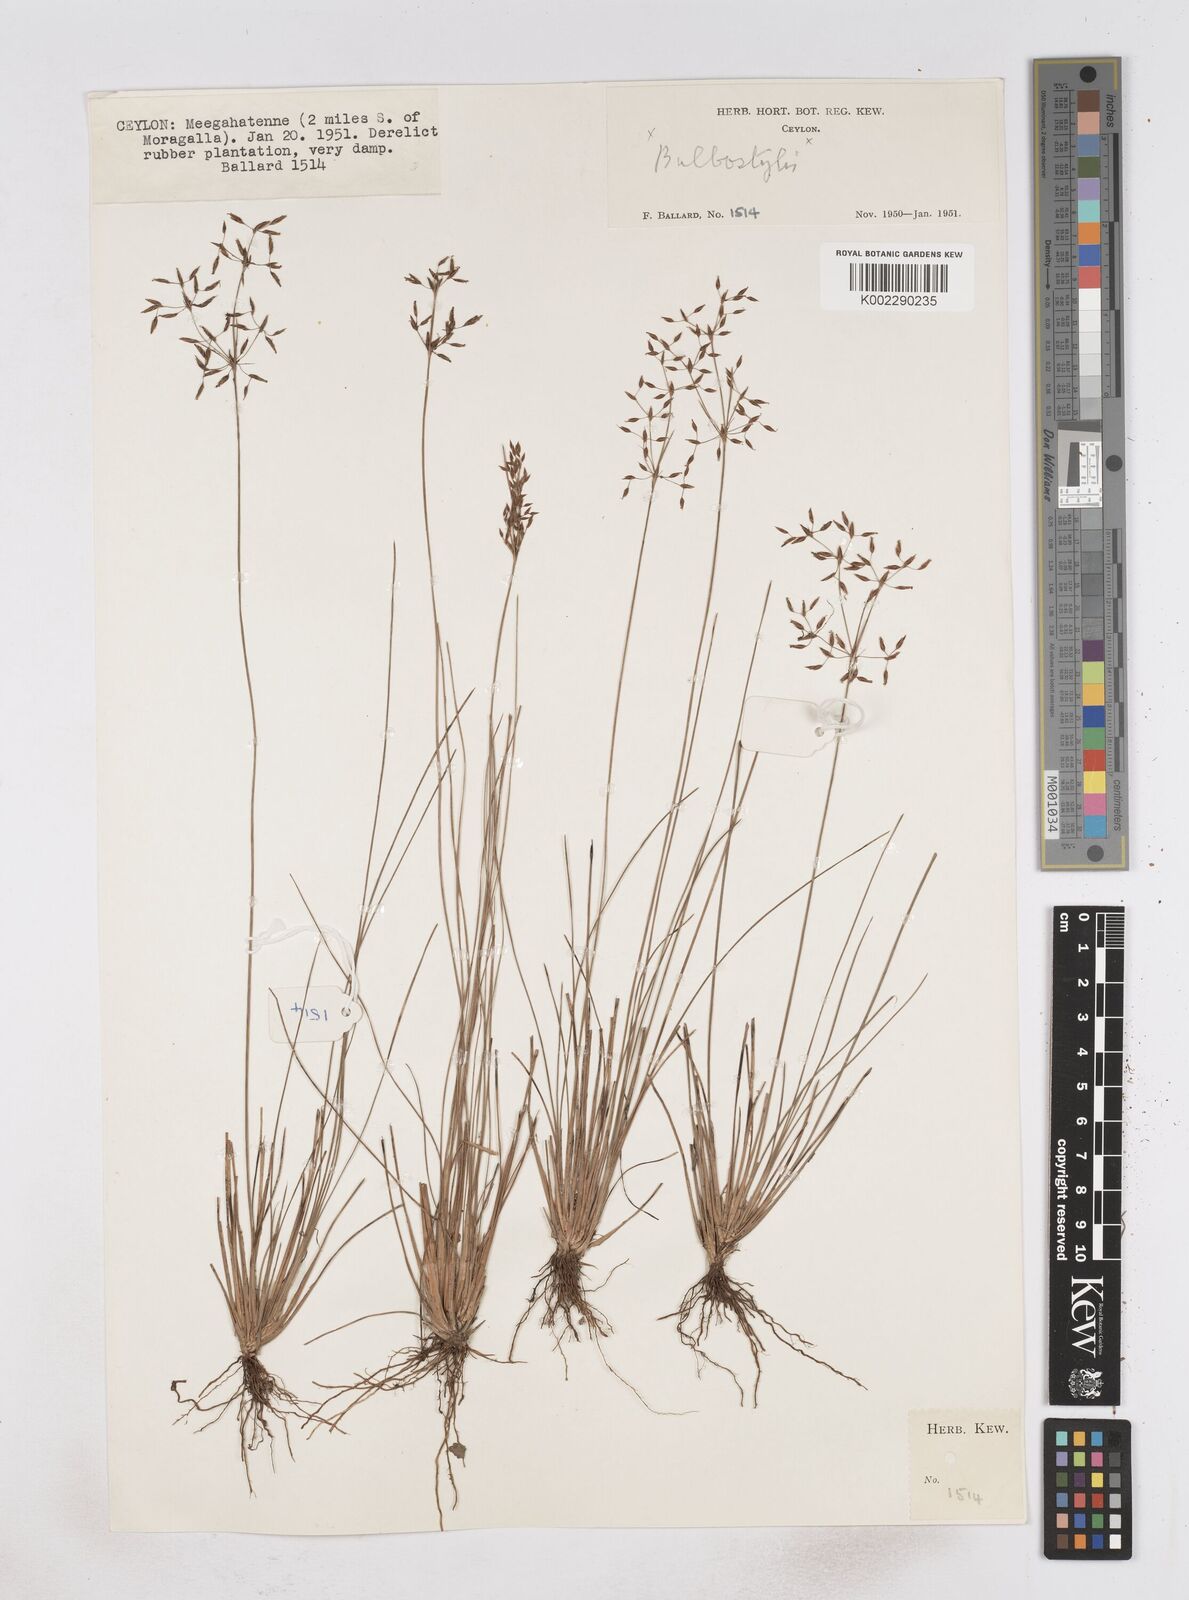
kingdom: Plantae
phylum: Tracheophyta
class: Liliopsida
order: Poales
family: Cyperaceae
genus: Fimbristylis
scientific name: Fimbristylis
